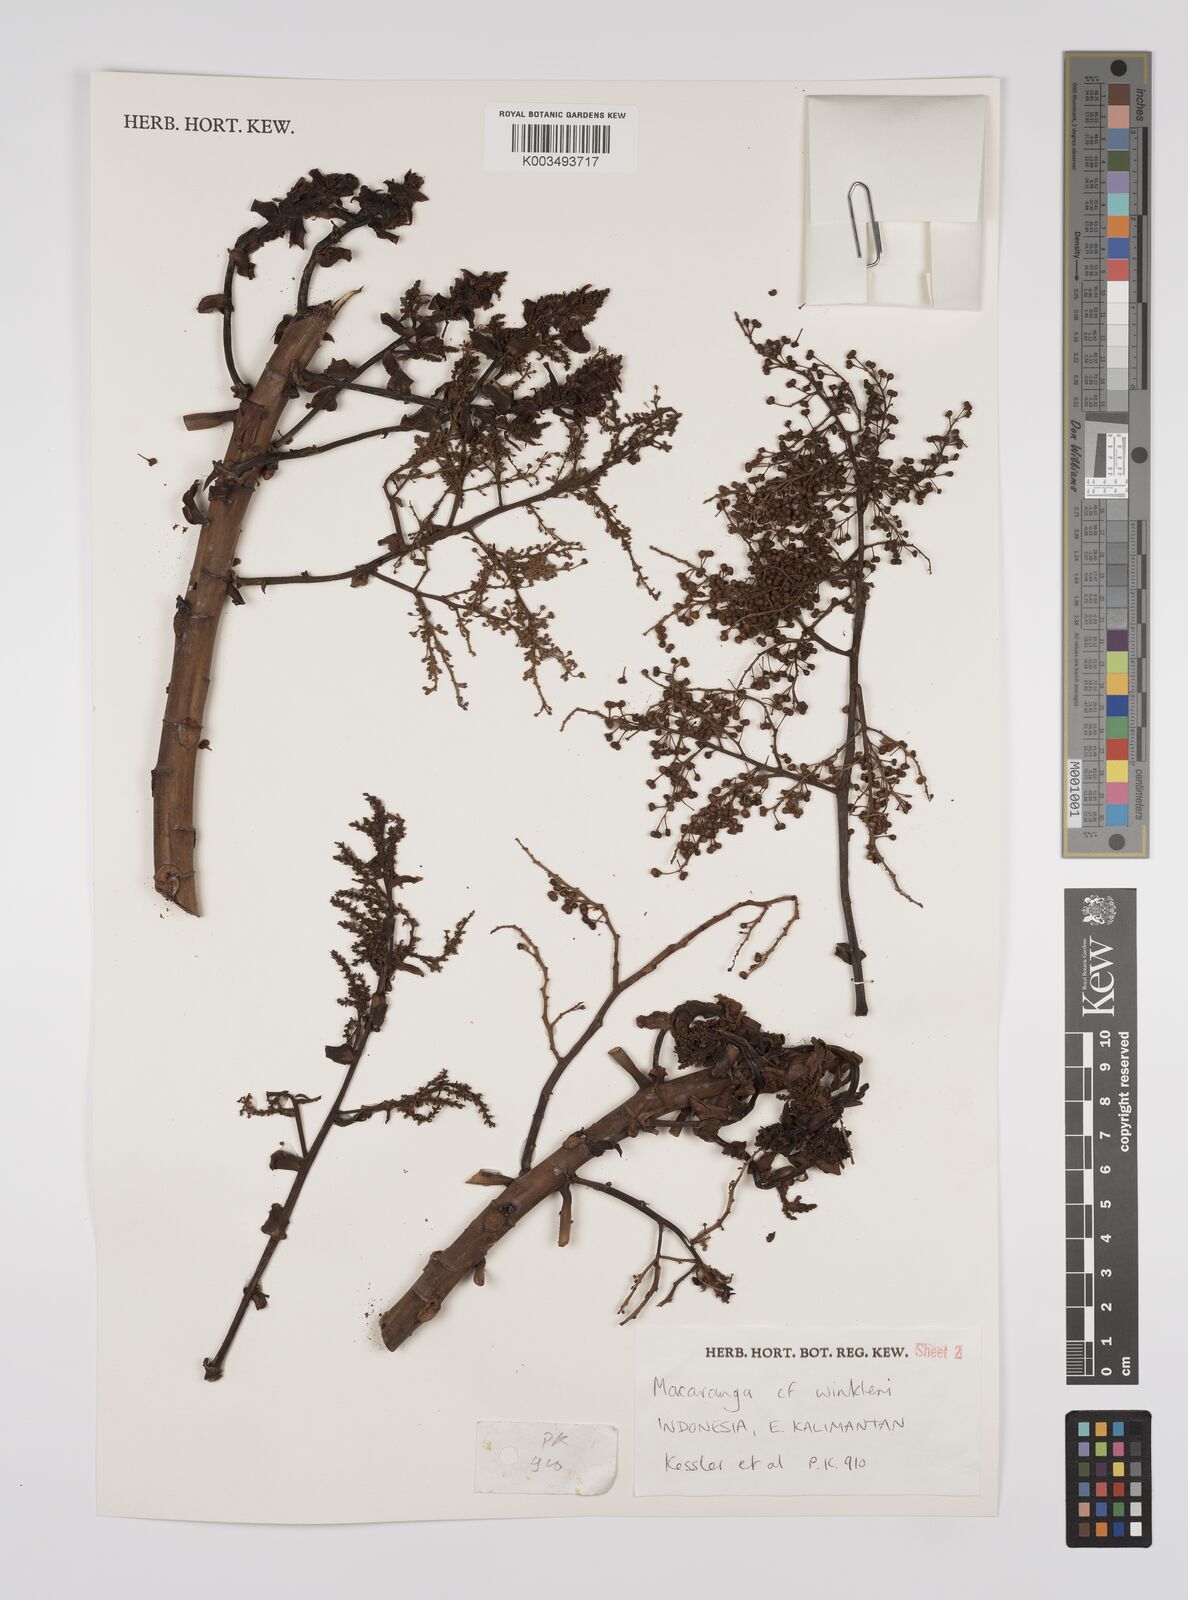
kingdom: Plantae
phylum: Tracheophyta
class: Magnoliopsida
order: Malpighiales
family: Euphorbiaceae
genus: Macaranga
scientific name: Macaranga winkleri
